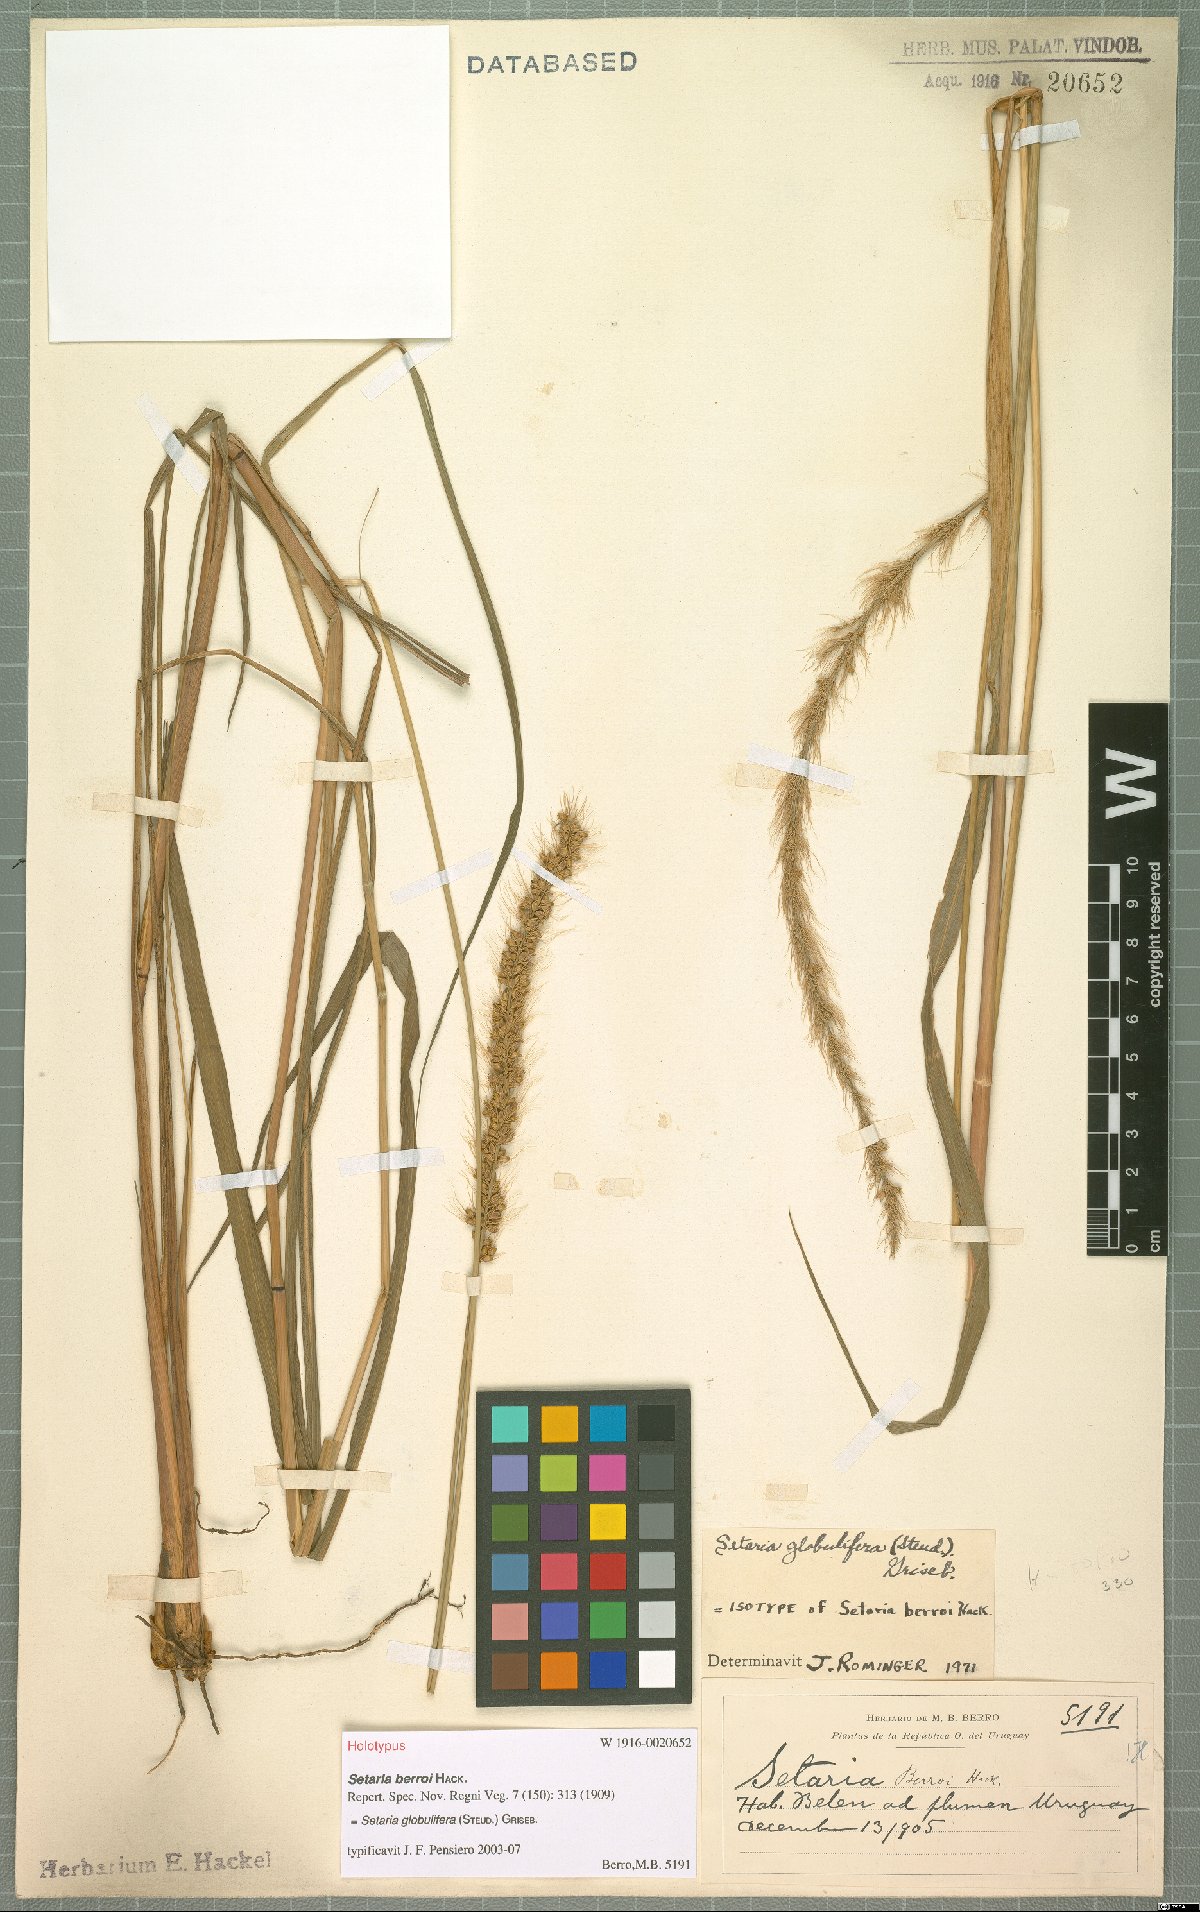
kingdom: Plantae
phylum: Tracheophyta
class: Liliopsida
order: Poales
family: Poaceae
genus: Setaria
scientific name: Setaria globulifera
